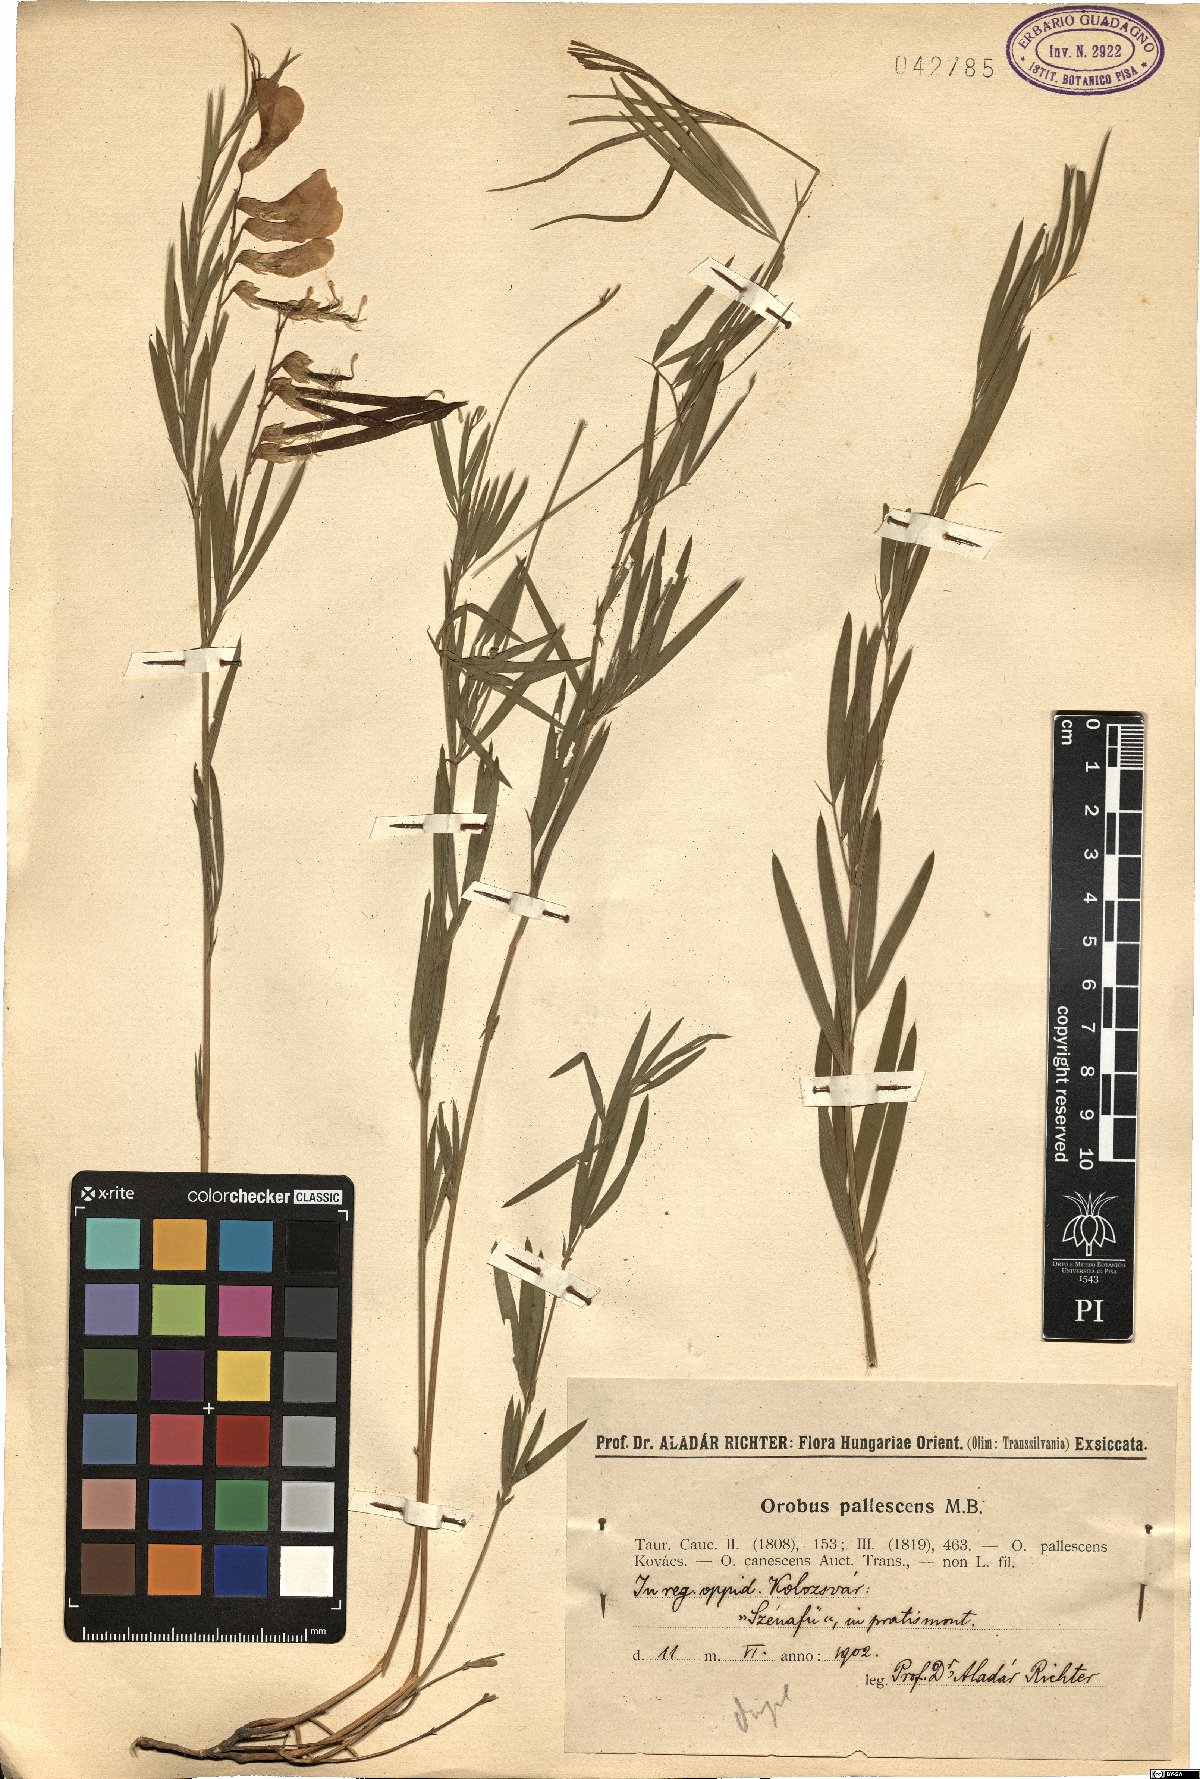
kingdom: Plantae
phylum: Tracheophyta
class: Magnoliopsida
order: Fabales
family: Fabaceae
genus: Lathyrus
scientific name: Lathyrus pallescens
